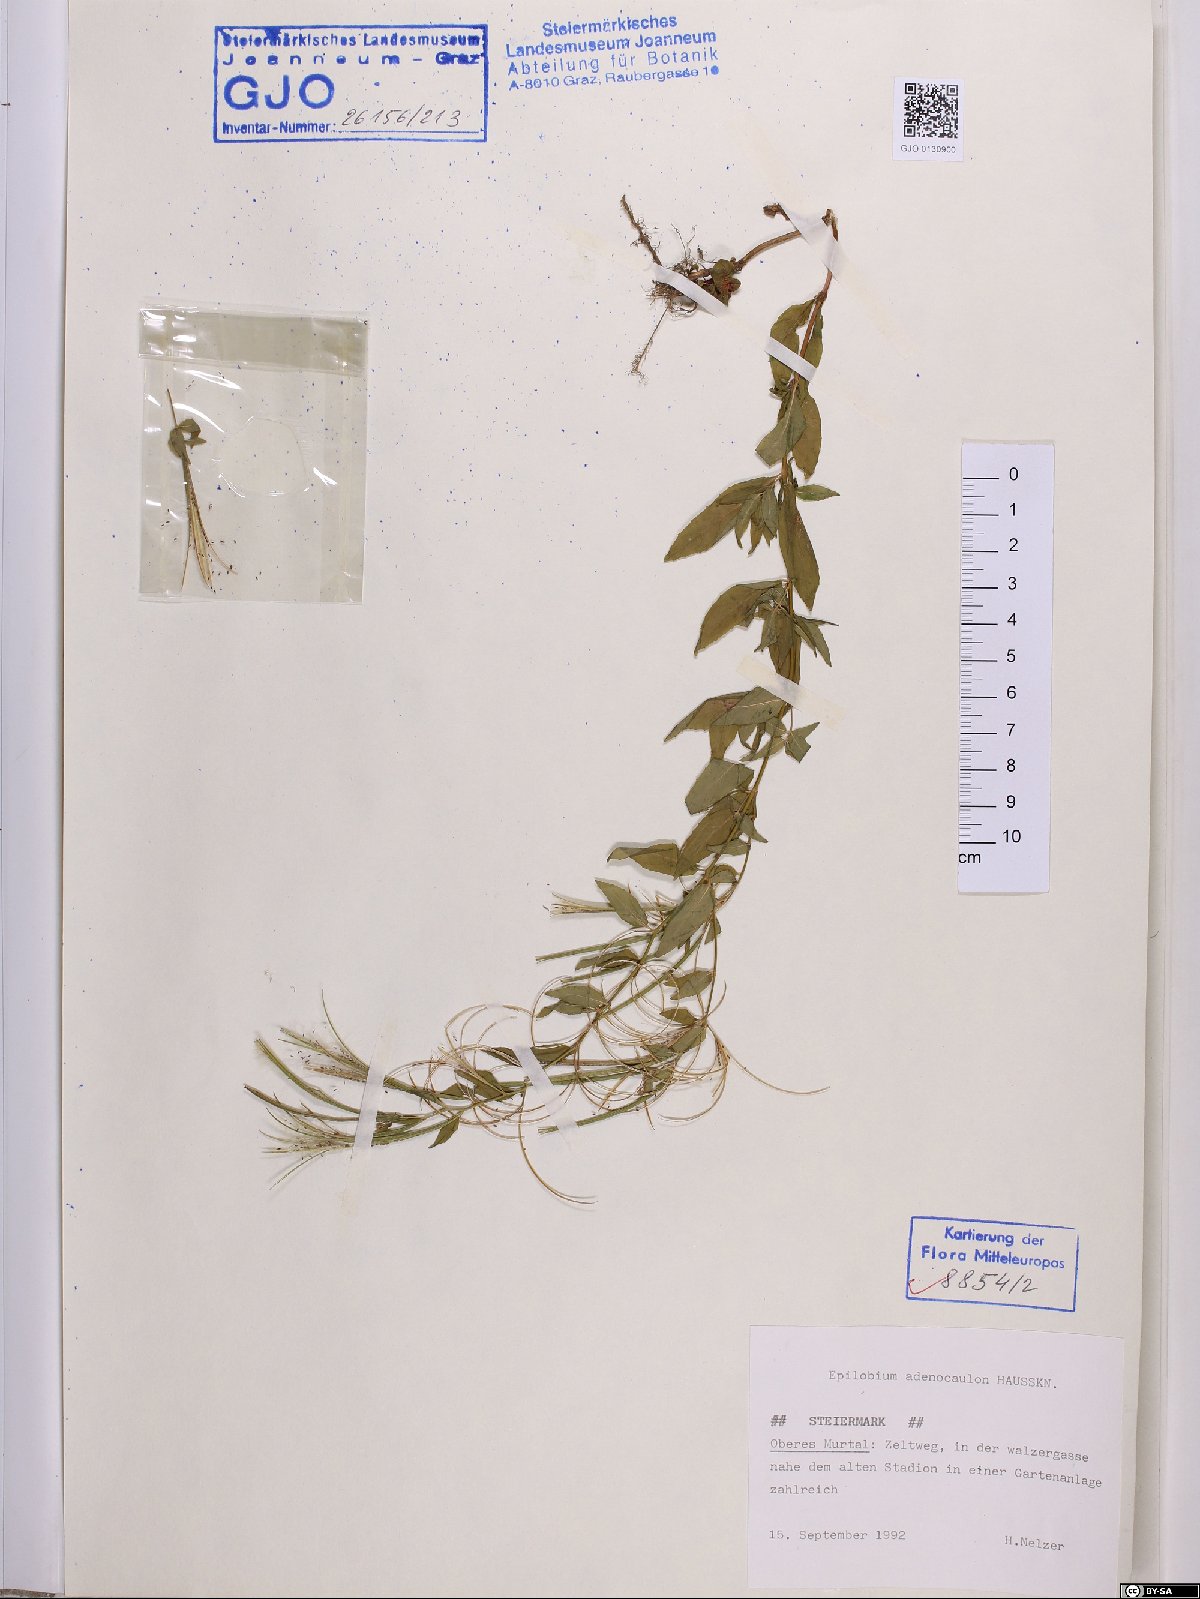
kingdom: Plantae
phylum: Tracheophyta
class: Magnoliopsida
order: Myrtales
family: Onagraceae
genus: Epilobium
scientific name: Epilobium ciliatum
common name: American willowherb
